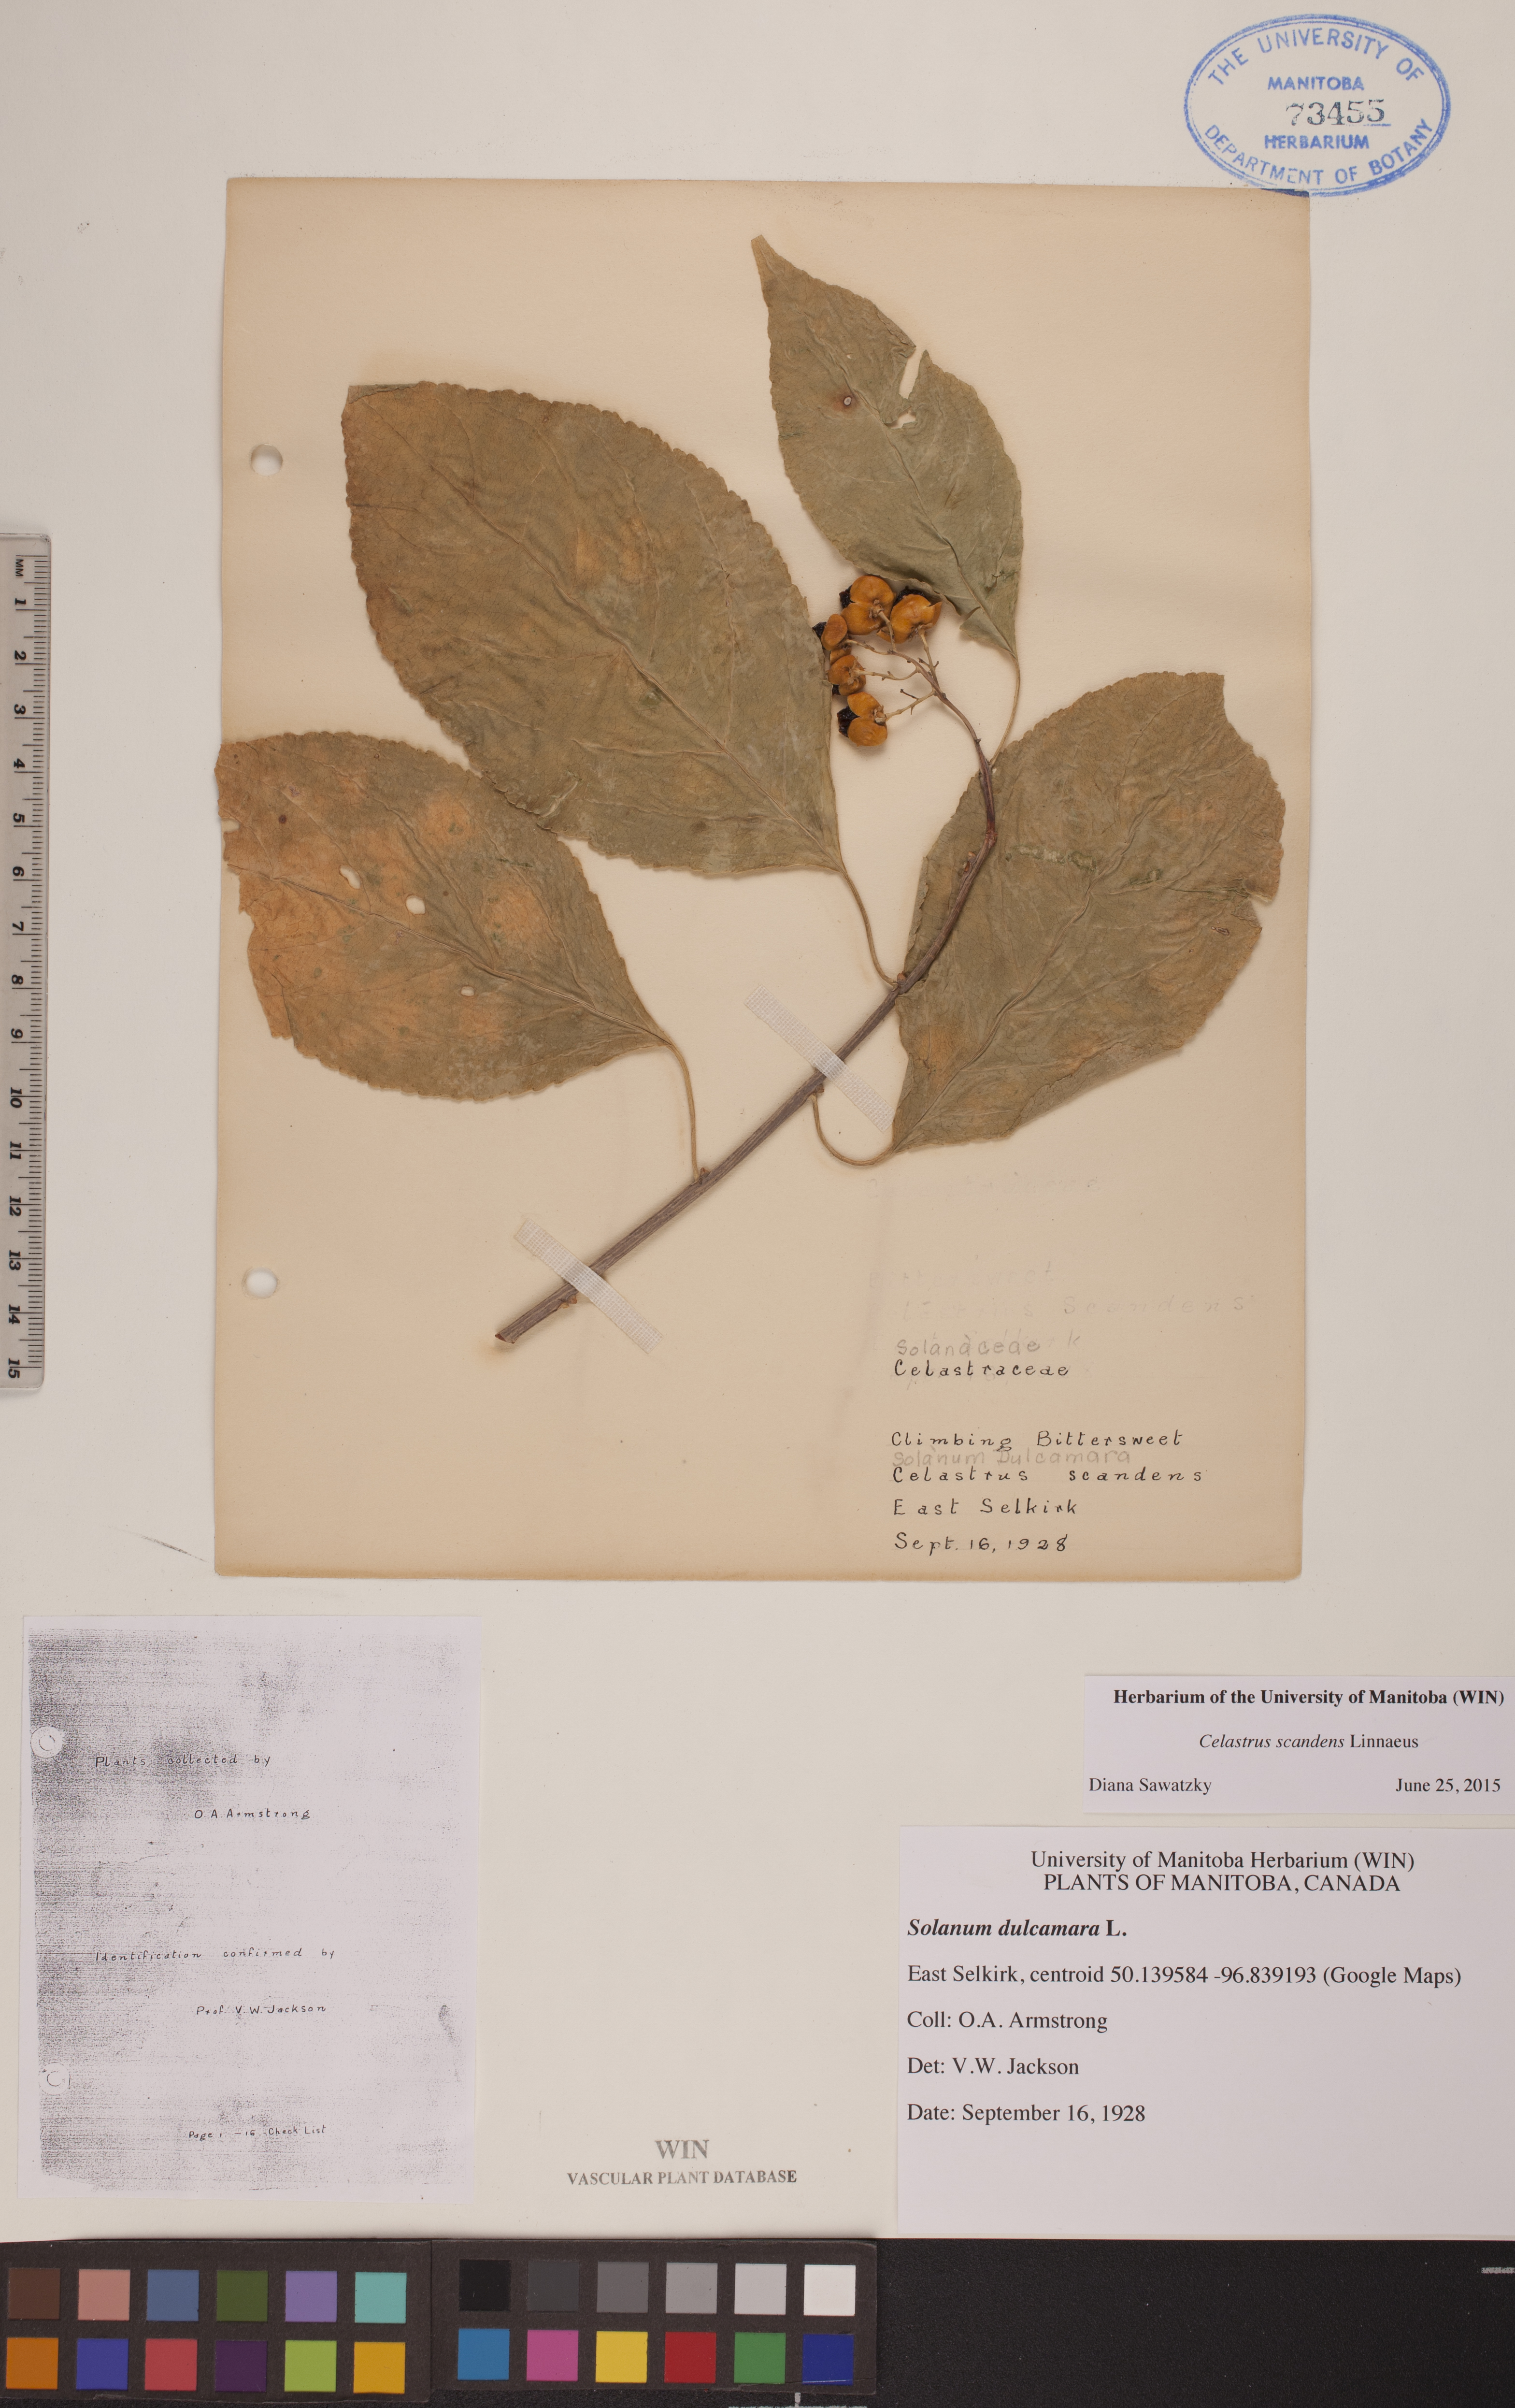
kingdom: Plantae
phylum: Tracheophyta
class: Magnoliopsida
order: Celastrales
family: Celastraceae
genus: Celastrus
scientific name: Celastrus scandens
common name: American bittersweet
